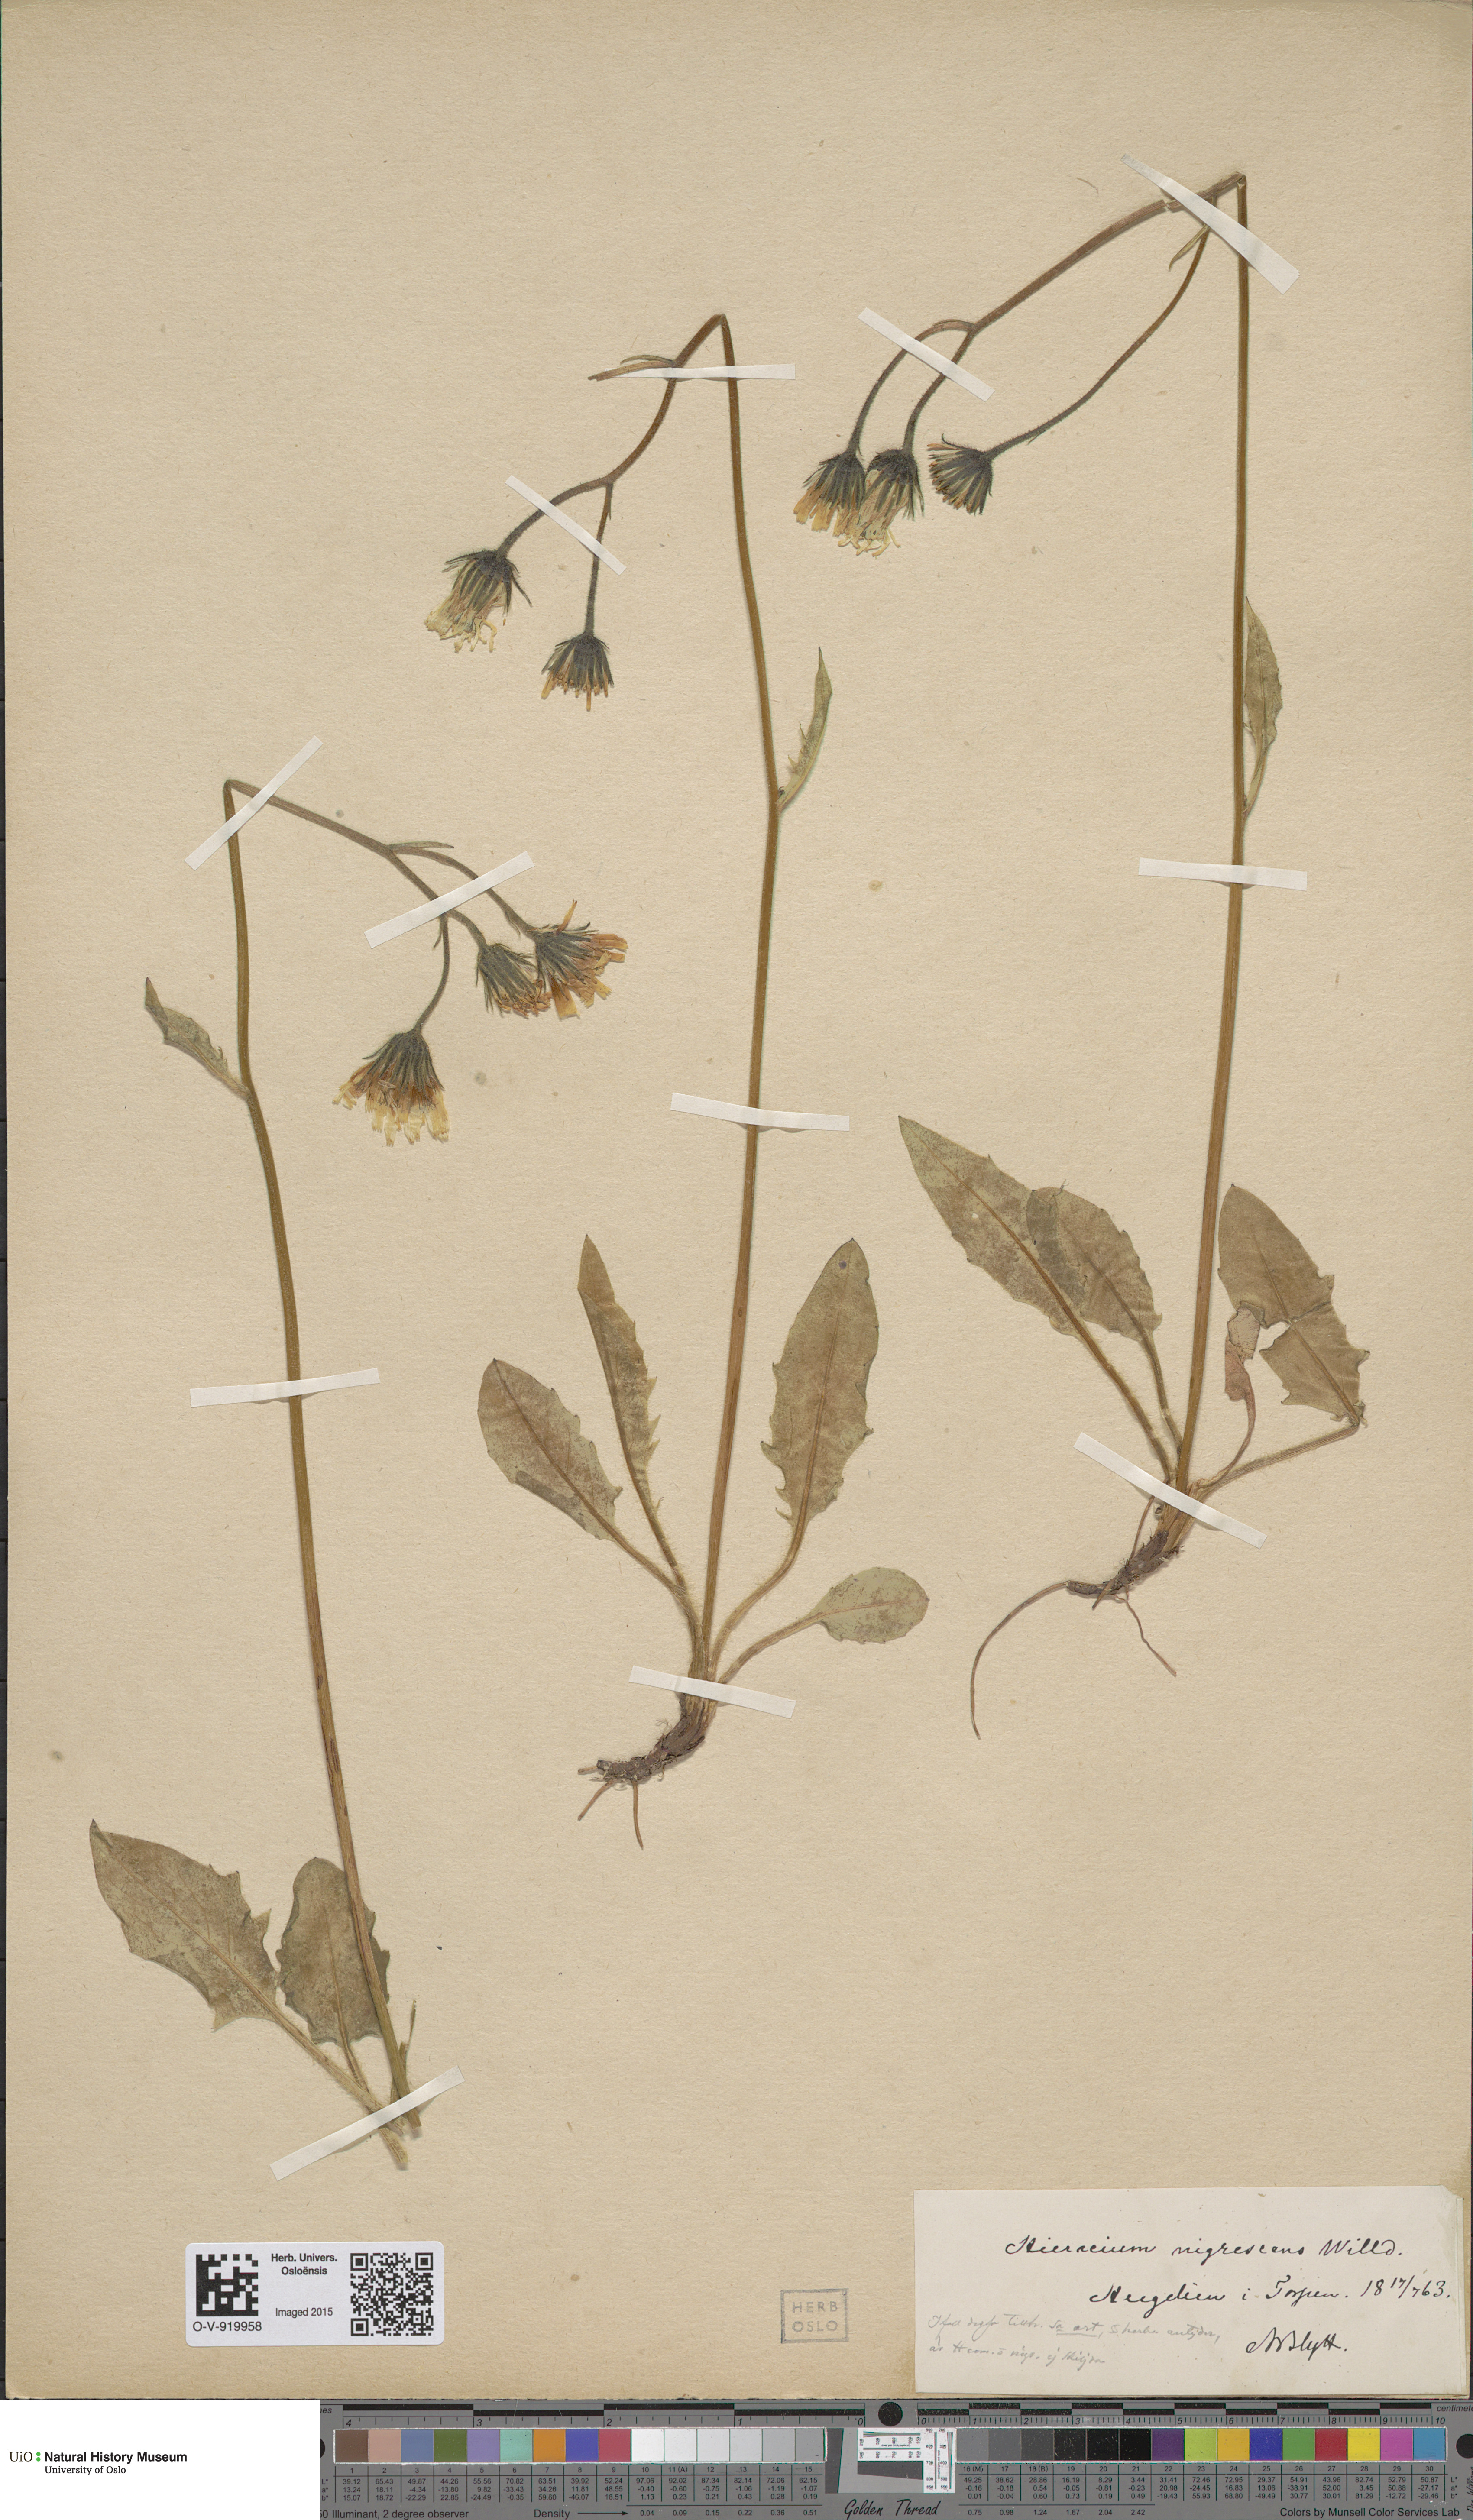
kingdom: Plantae
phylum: Tracheophyta
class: Magnoliopsida
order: Asterales
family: Asteraceae
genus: Hieracium
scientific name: Hieracium nigrescens
